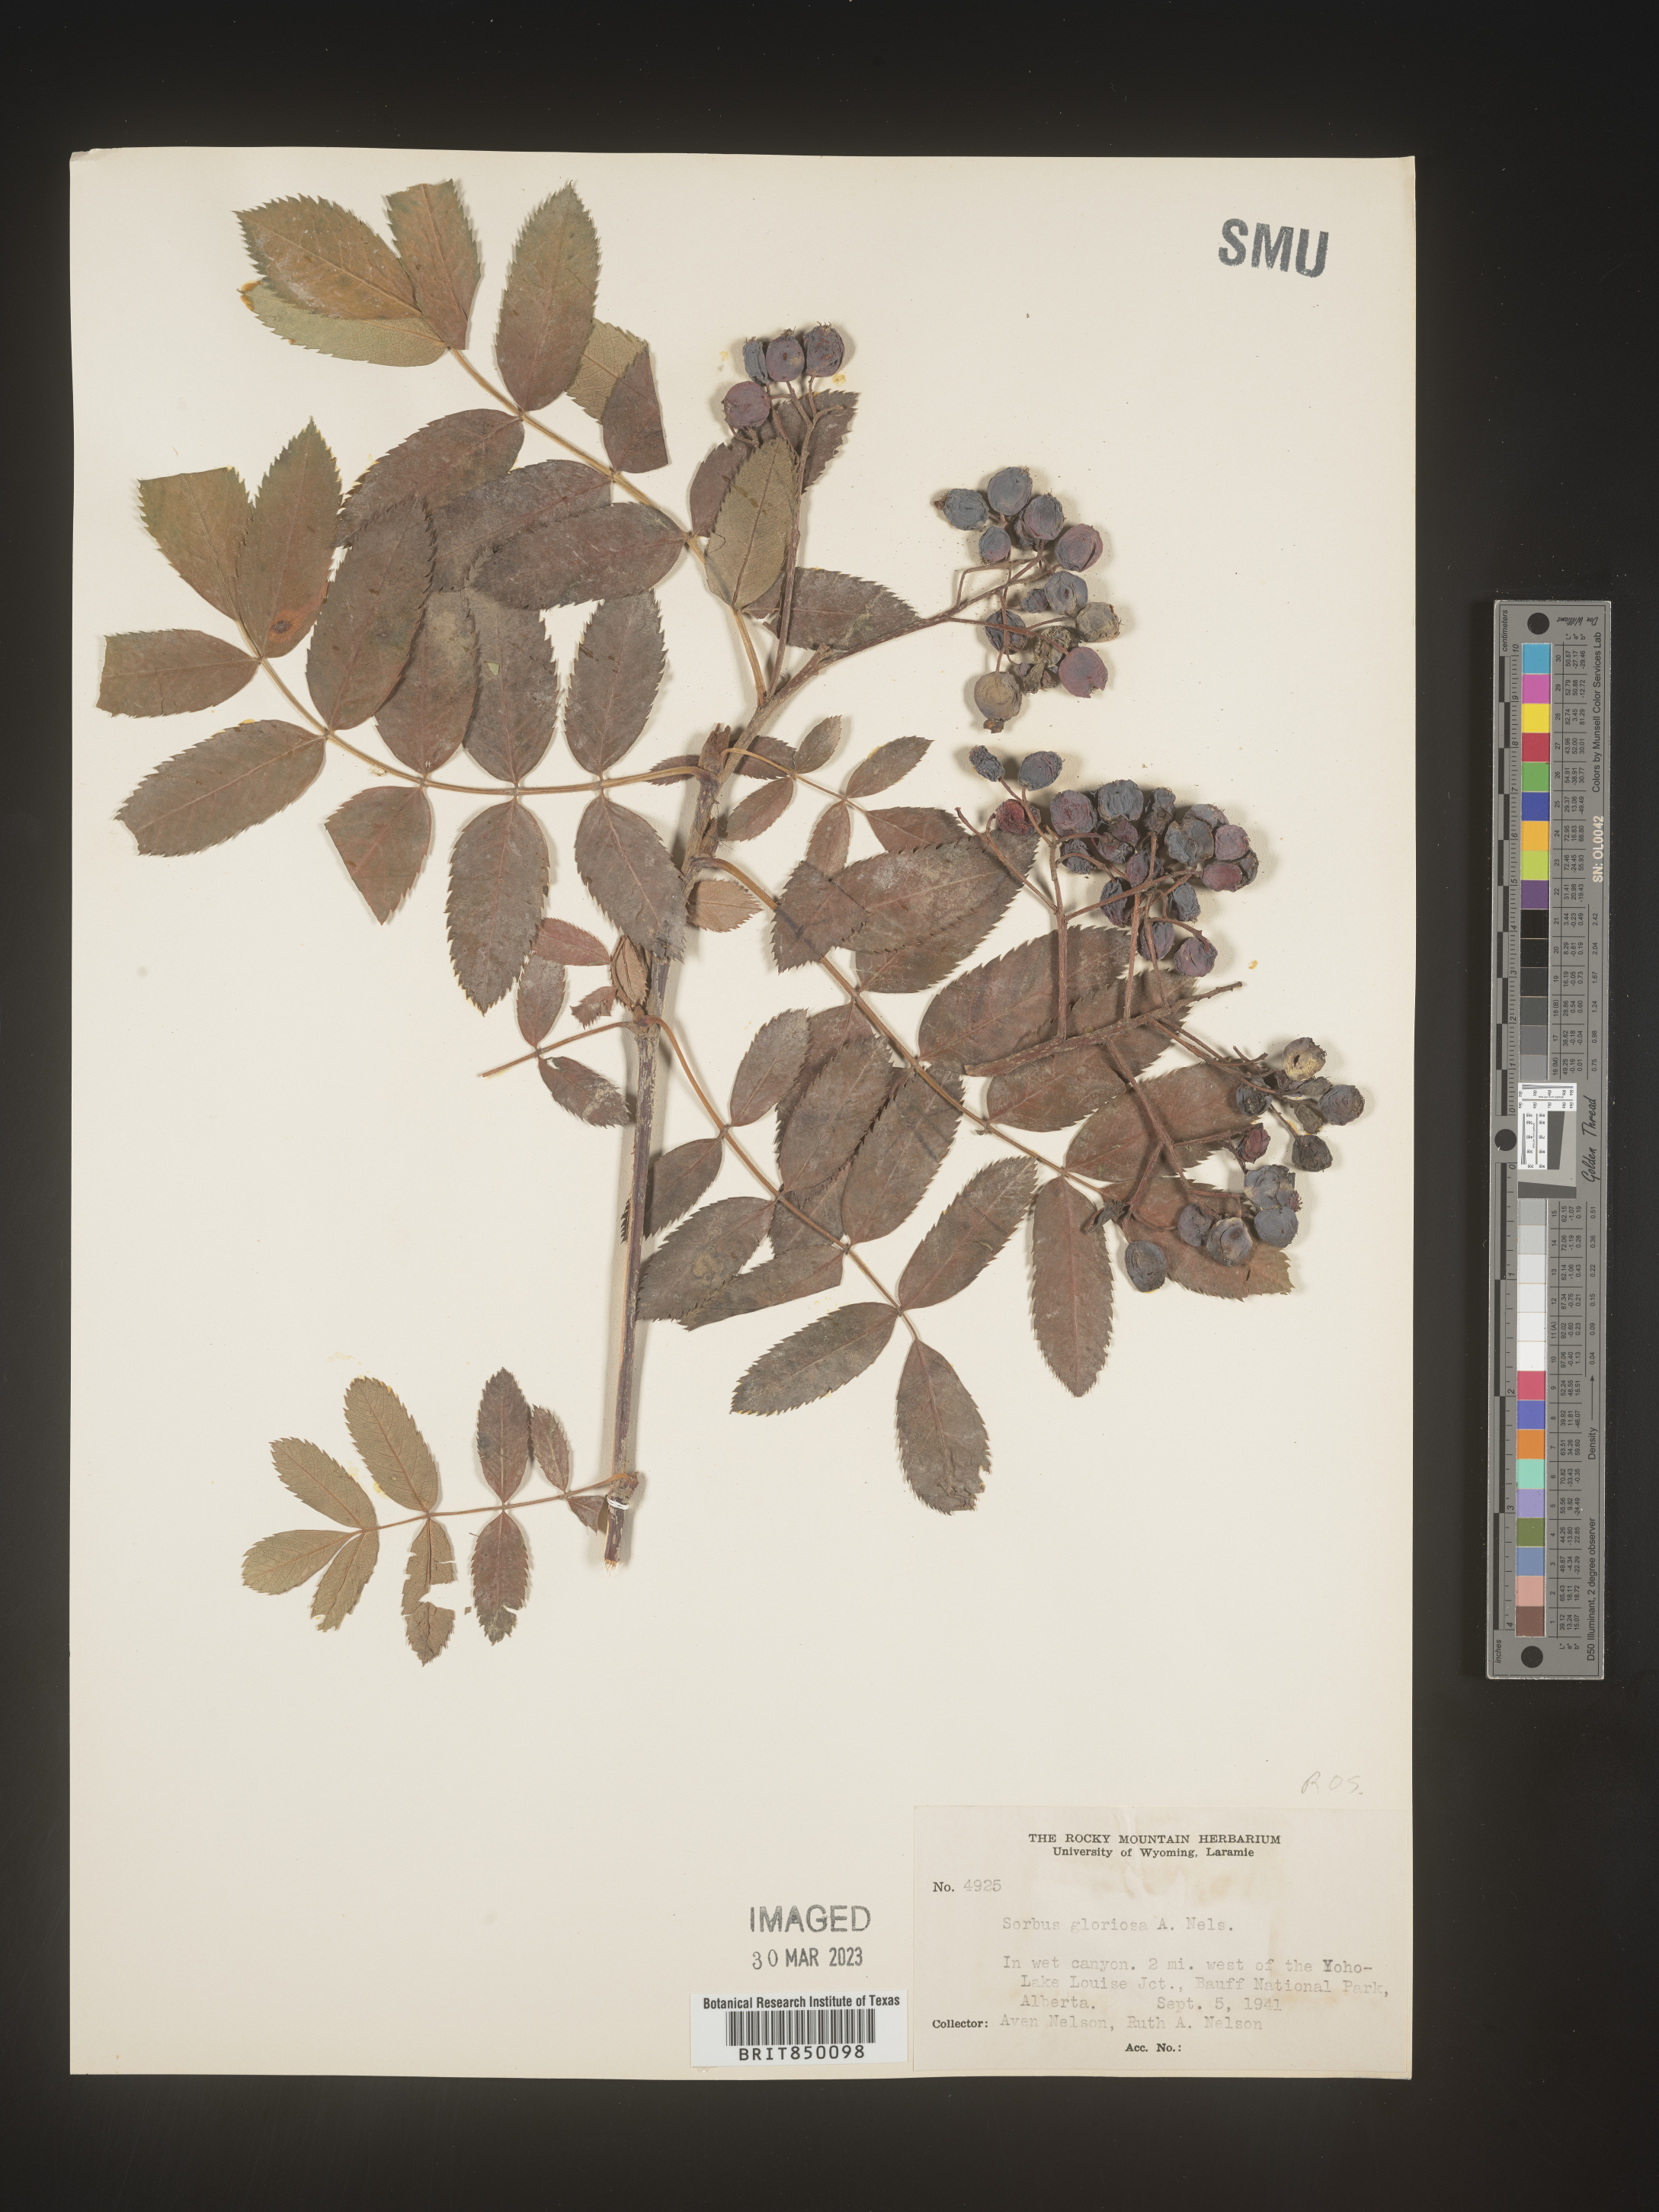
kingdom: Plantae
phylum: Tracheophyta
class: Magnoliopsida
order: Rosales
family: Rosaceae
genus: Sorbus
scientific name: Sorbus
